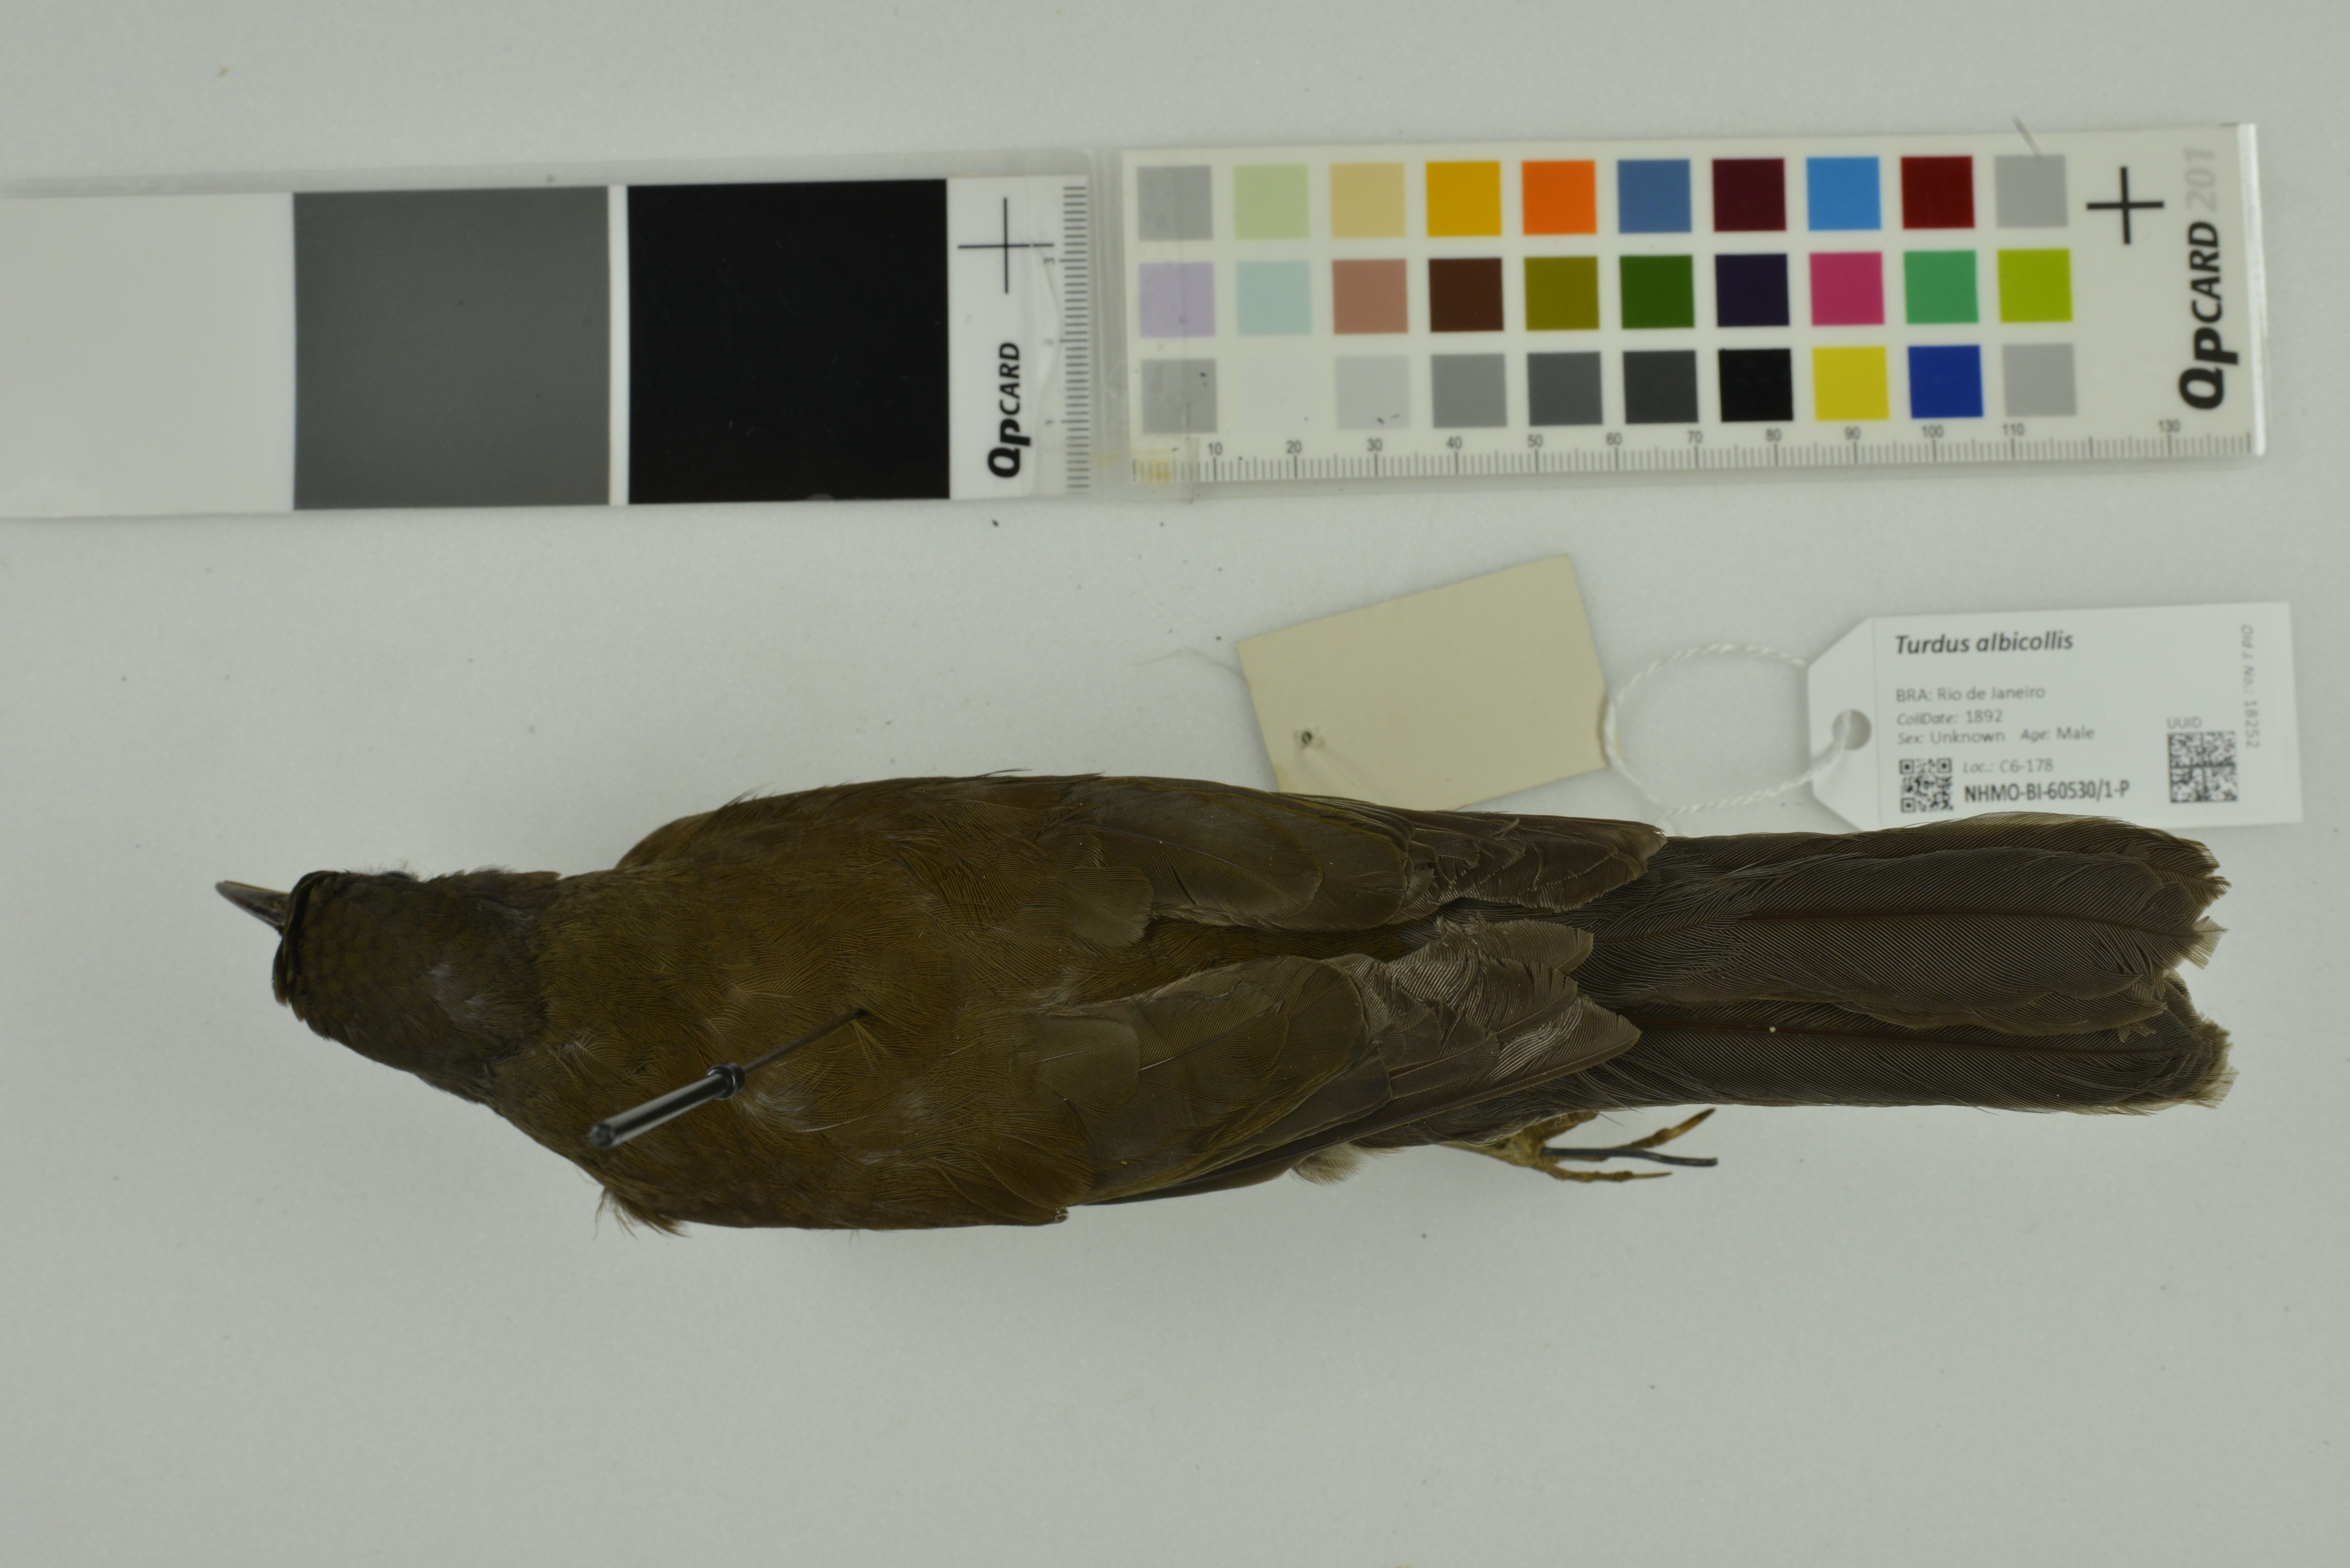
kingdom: Animalia
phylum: Chordata
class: Aves
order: Passeriformes
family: Turdidae
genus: Turdus
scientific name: Turdus albicollis
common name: White-necked thrush
